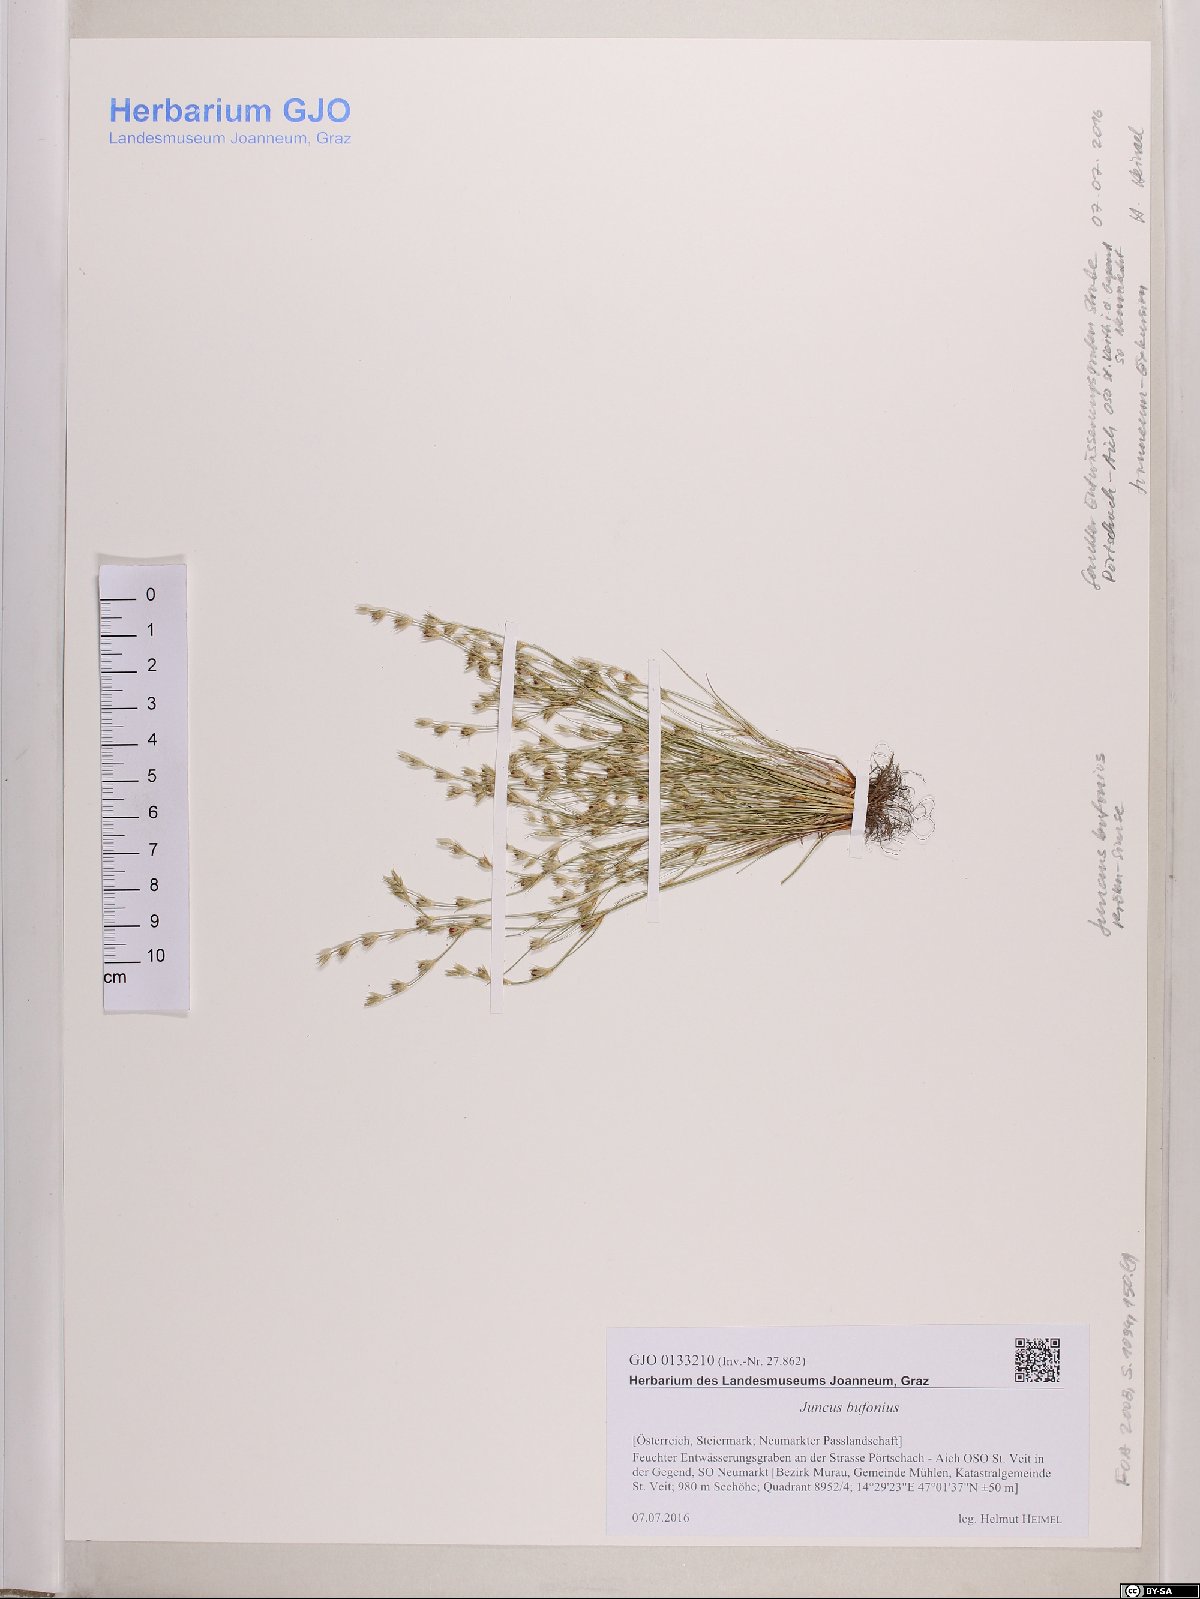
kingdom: Plantae
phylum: Tracheophyta
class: Liliopsida
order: Poales
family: Juncaceae
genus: Juncus
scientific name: Juncus bufonius
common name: Toad rush
